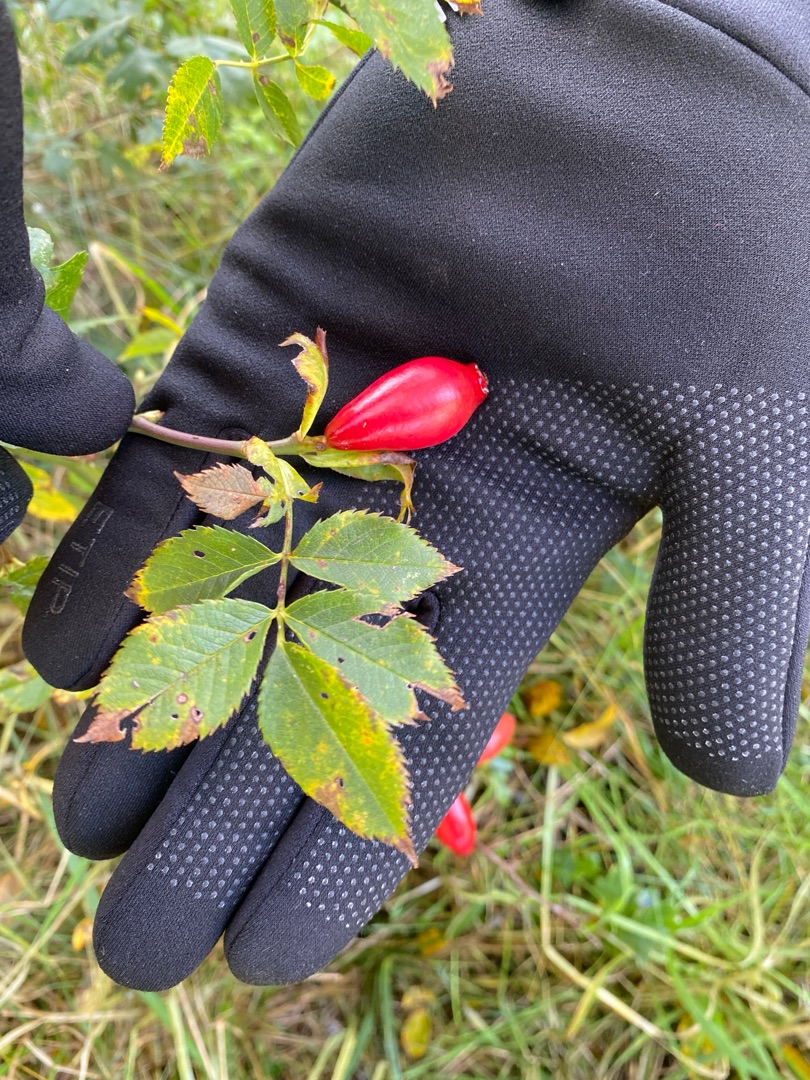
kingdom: Plantae
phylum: Tracheophyta
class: Magnoliopsida
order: Rosales
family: Rosaceae
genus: Rosa
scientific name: Rosa canina
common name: Hunde-rose
